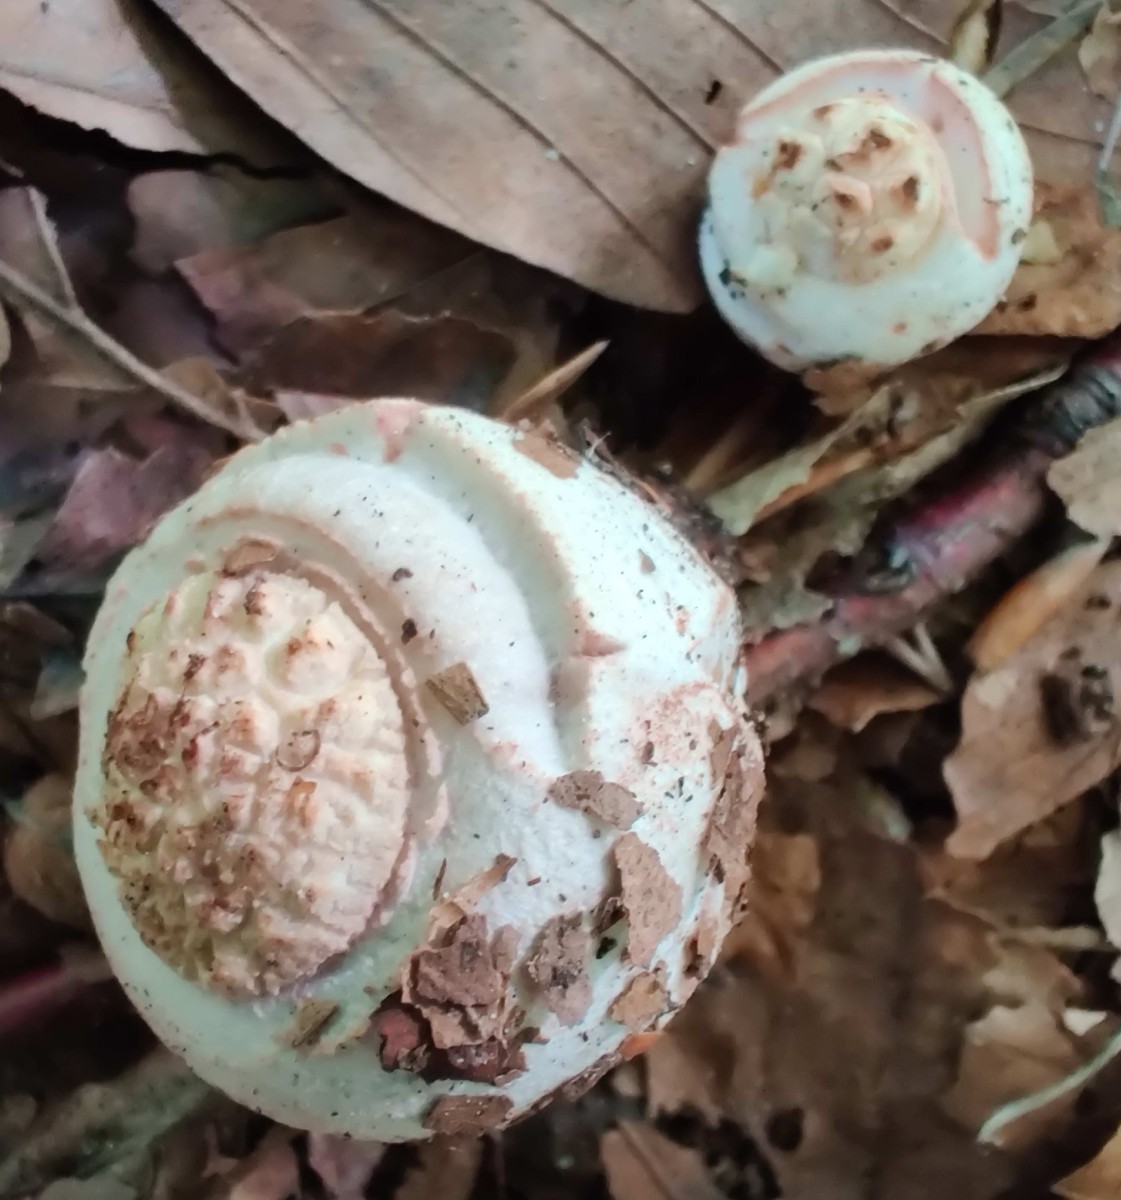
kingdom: Fungi
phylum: Basidiomycota
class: Agaricomycetes
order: Agaricales
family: Amanitaceae
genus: Amanita
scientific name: Amanita rubescens
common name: rødmende fluesvamp
